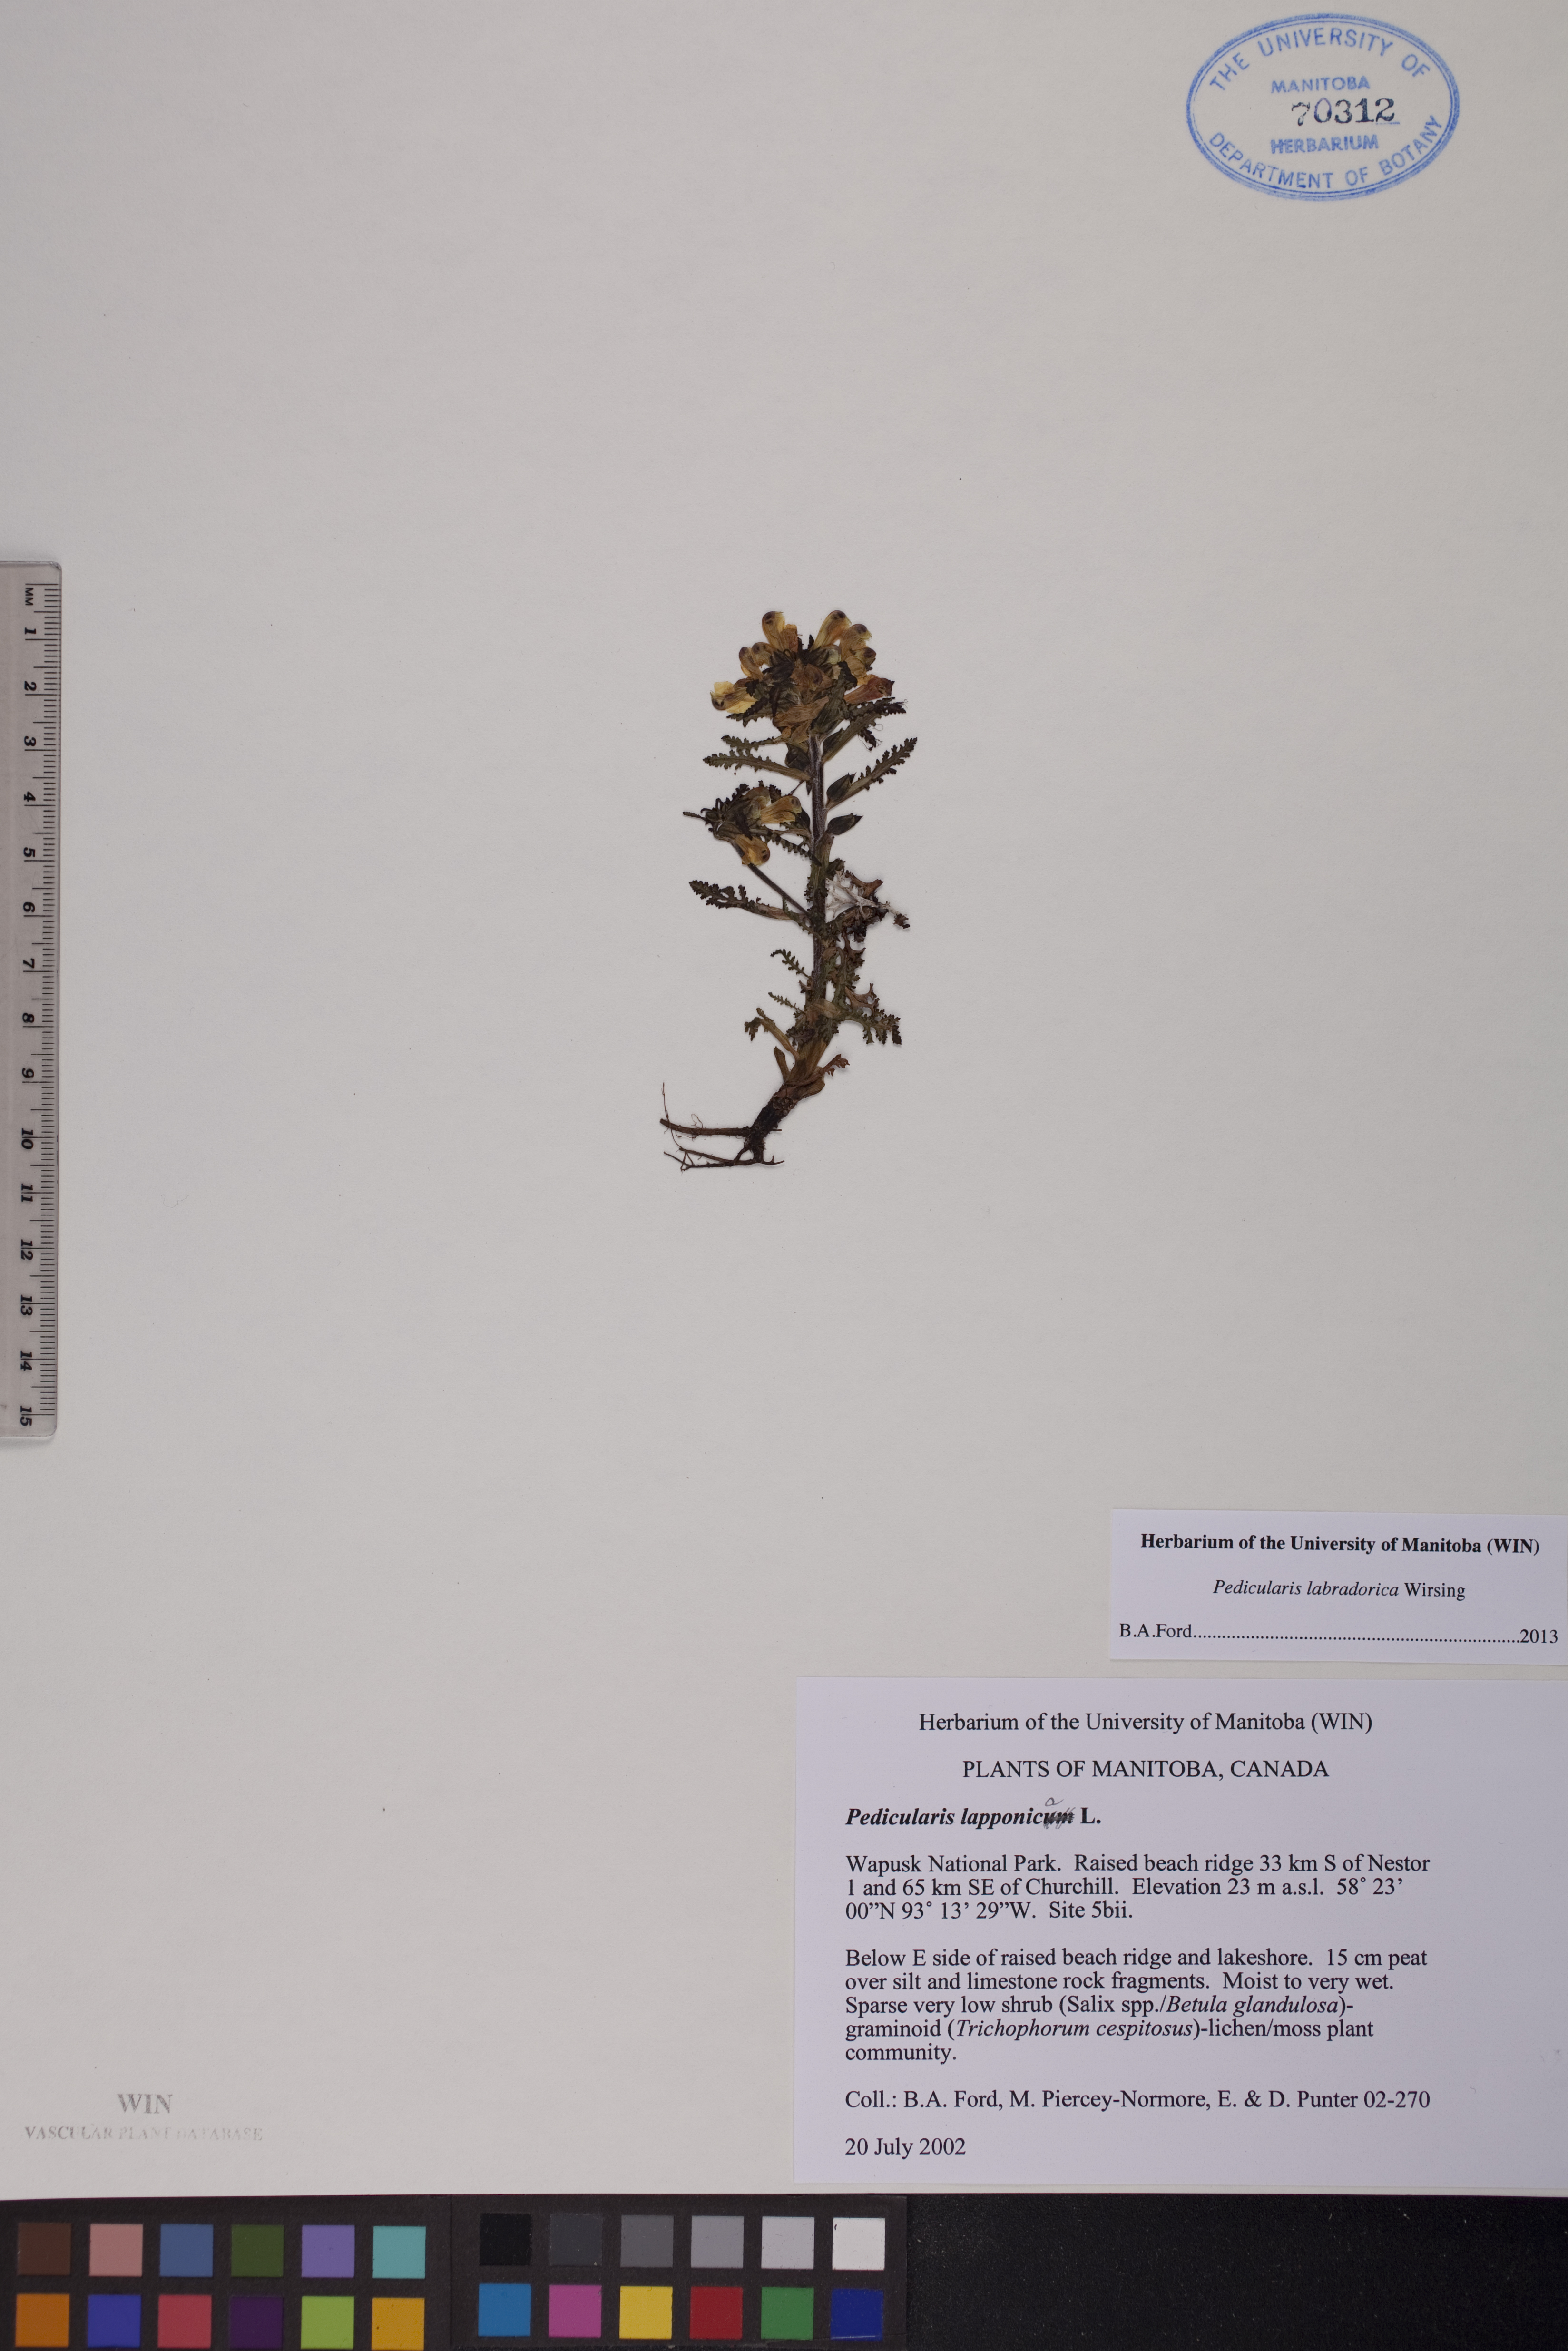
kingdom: Plantae
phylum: Tracheophyta
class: Magnoliopsida
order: Lamiales
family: Orobanchaceae
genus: Pedicularis
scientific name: Pedicularis labradorica
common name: Labrador lousewort
